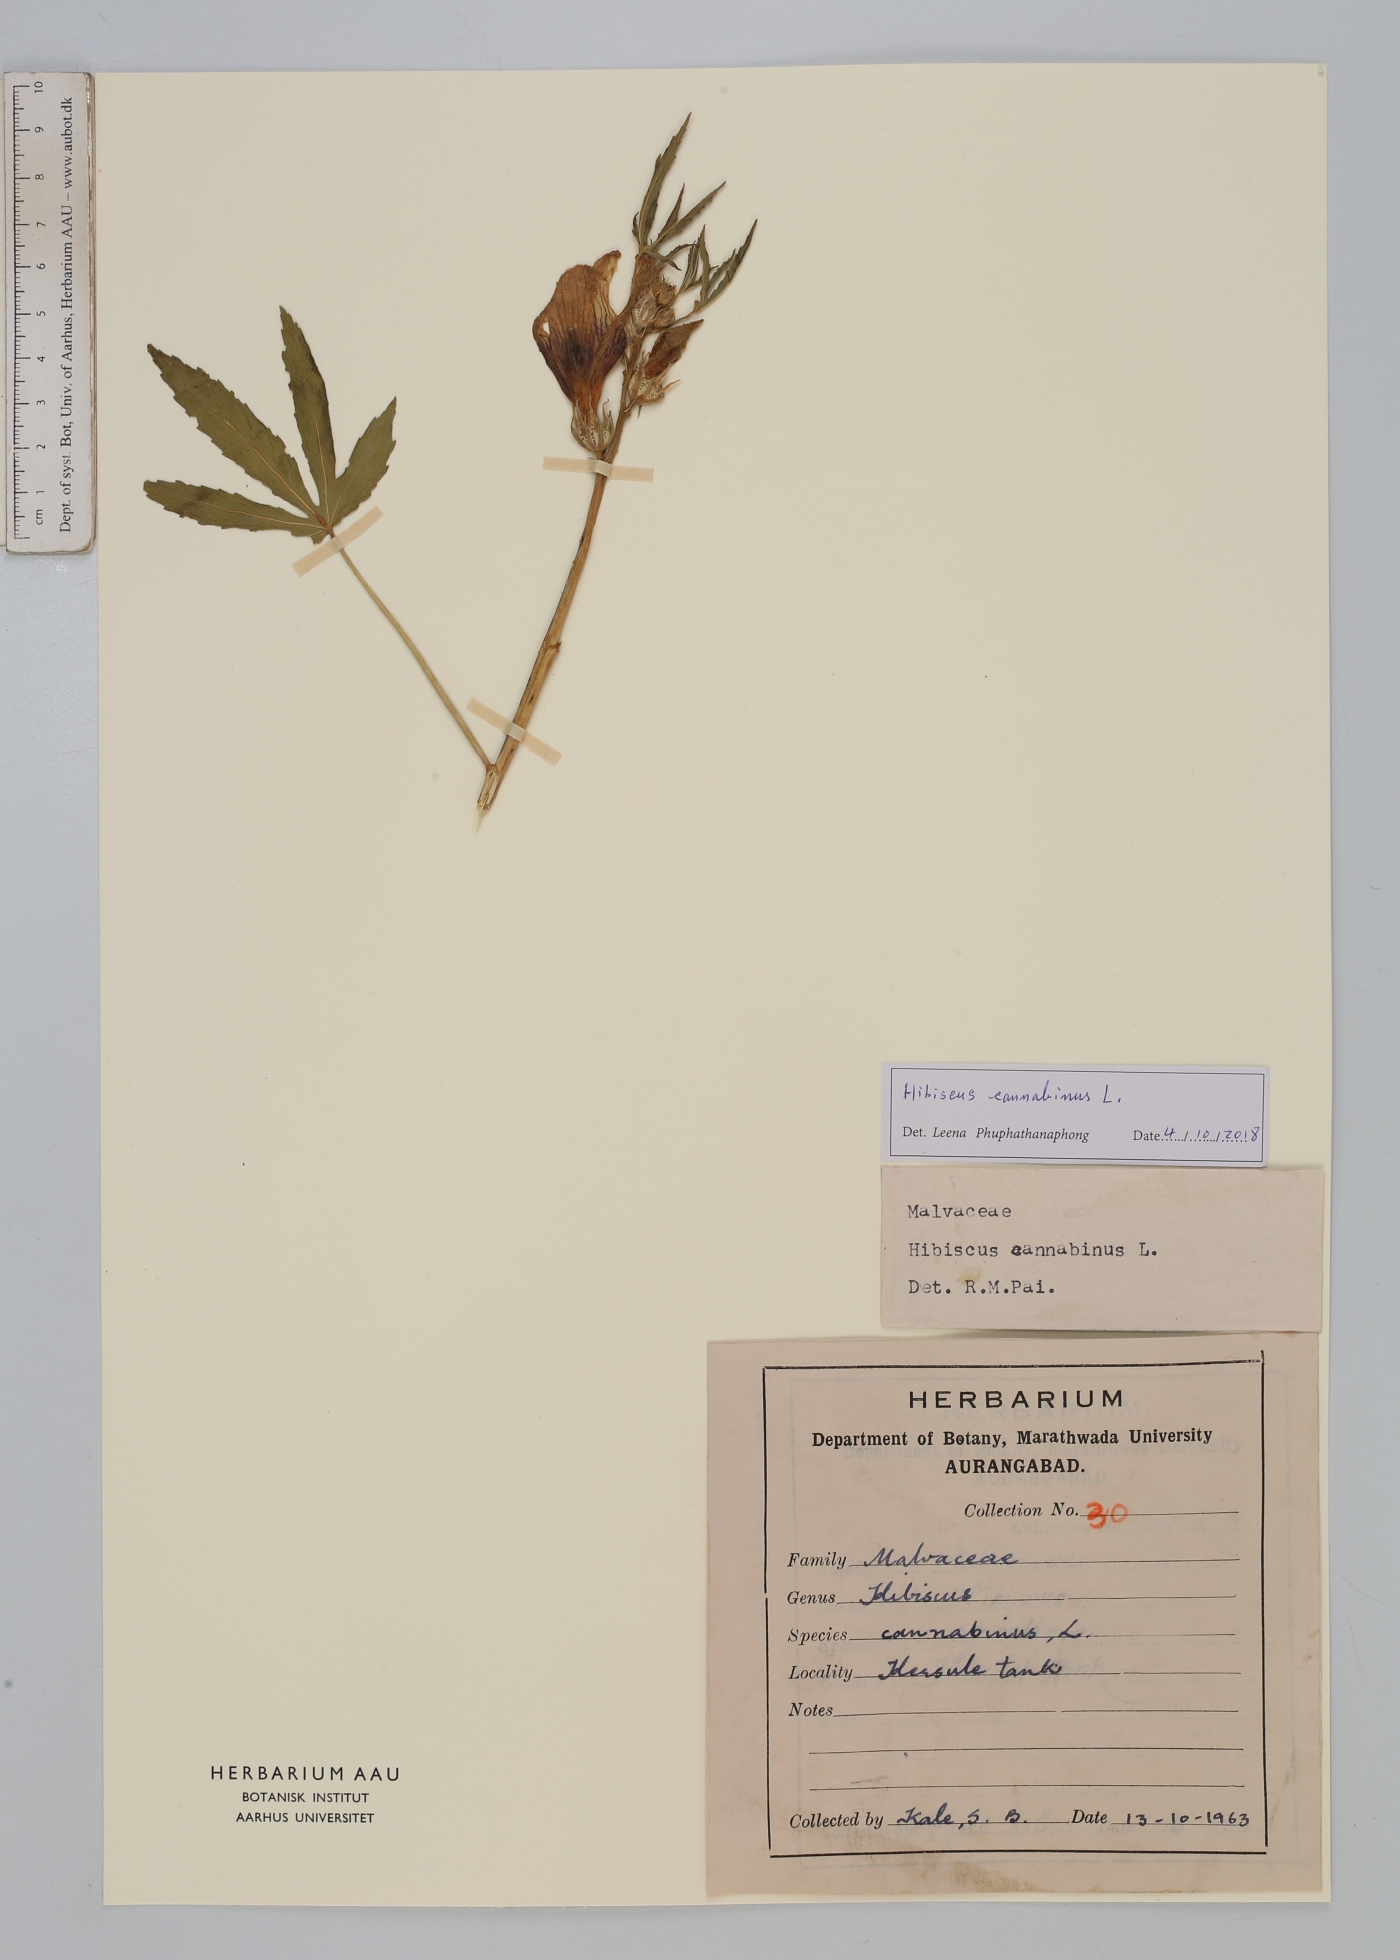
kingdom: Plantae
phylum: Tracheophyta
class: Magnoliopsida
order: Malvales
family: Malvaceae
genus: Hibiscus
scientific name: Hibiscus cannabinus
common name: Brown indianhemp
